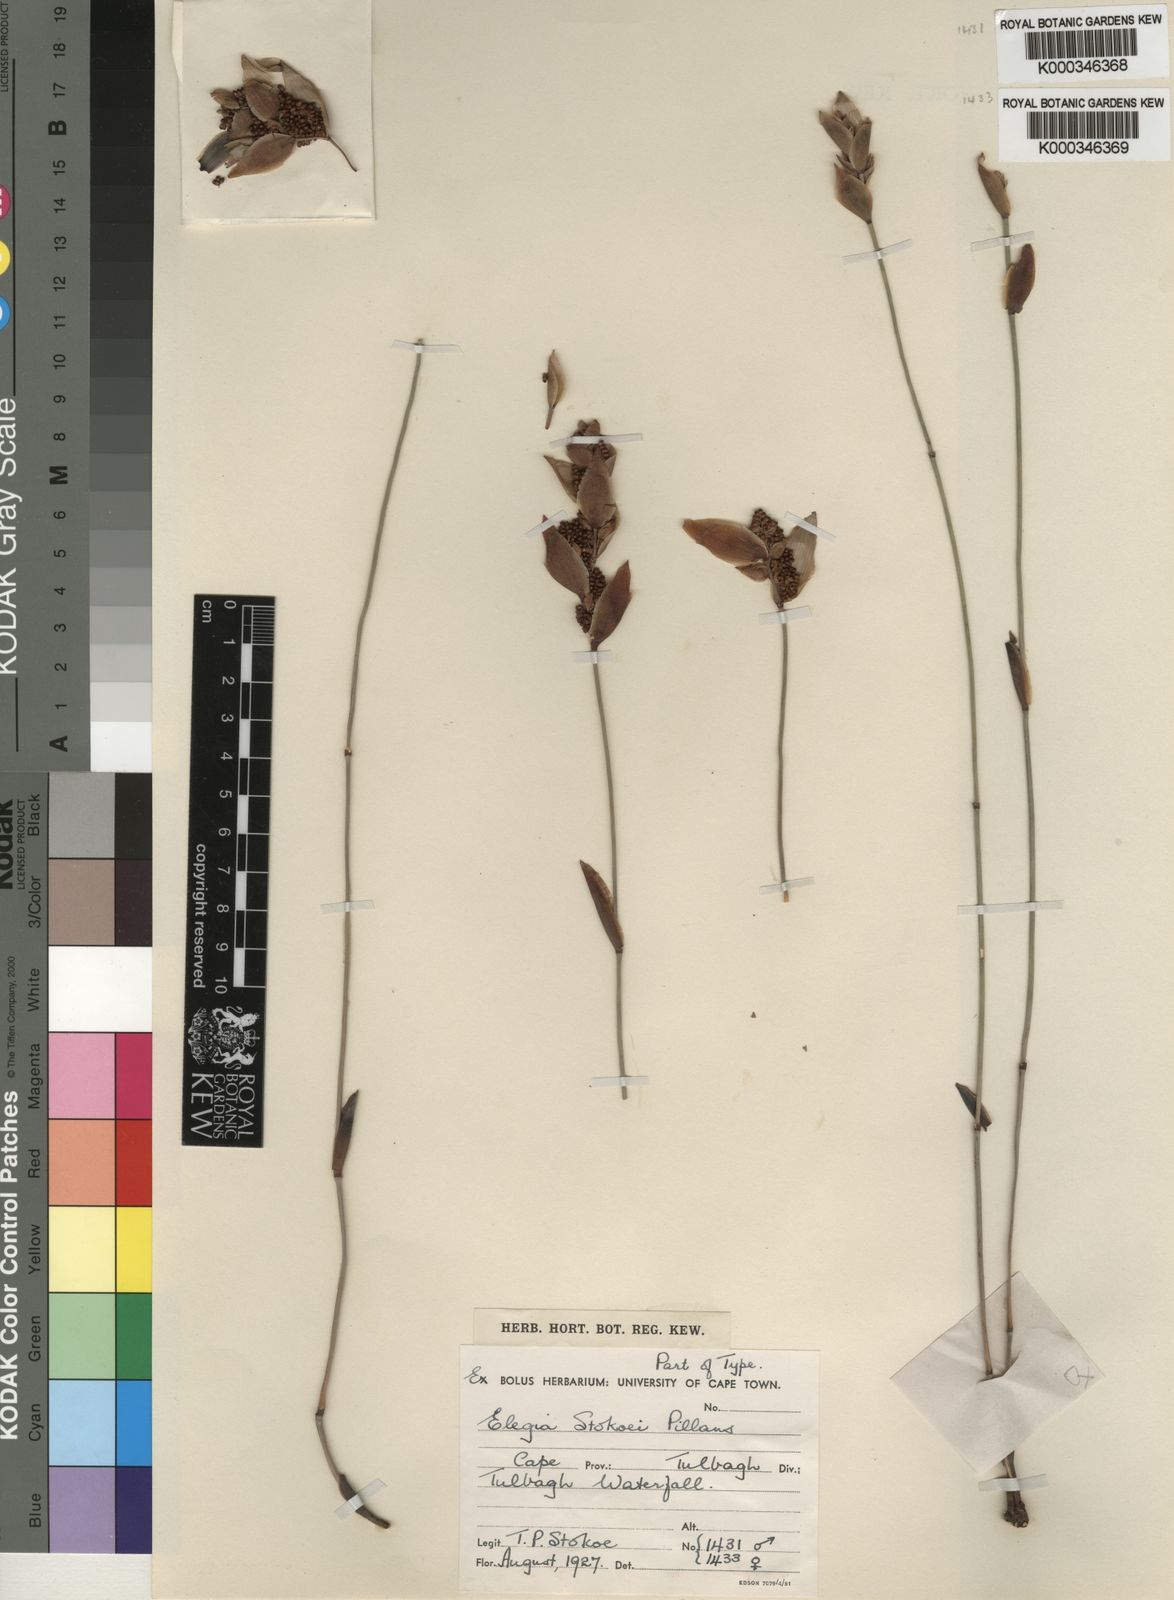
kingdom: Plantae
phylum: Tracheophyta
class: Liliopsida
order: Poales
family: Restionaceae
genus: Elegia
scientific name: Elegia stokoei
